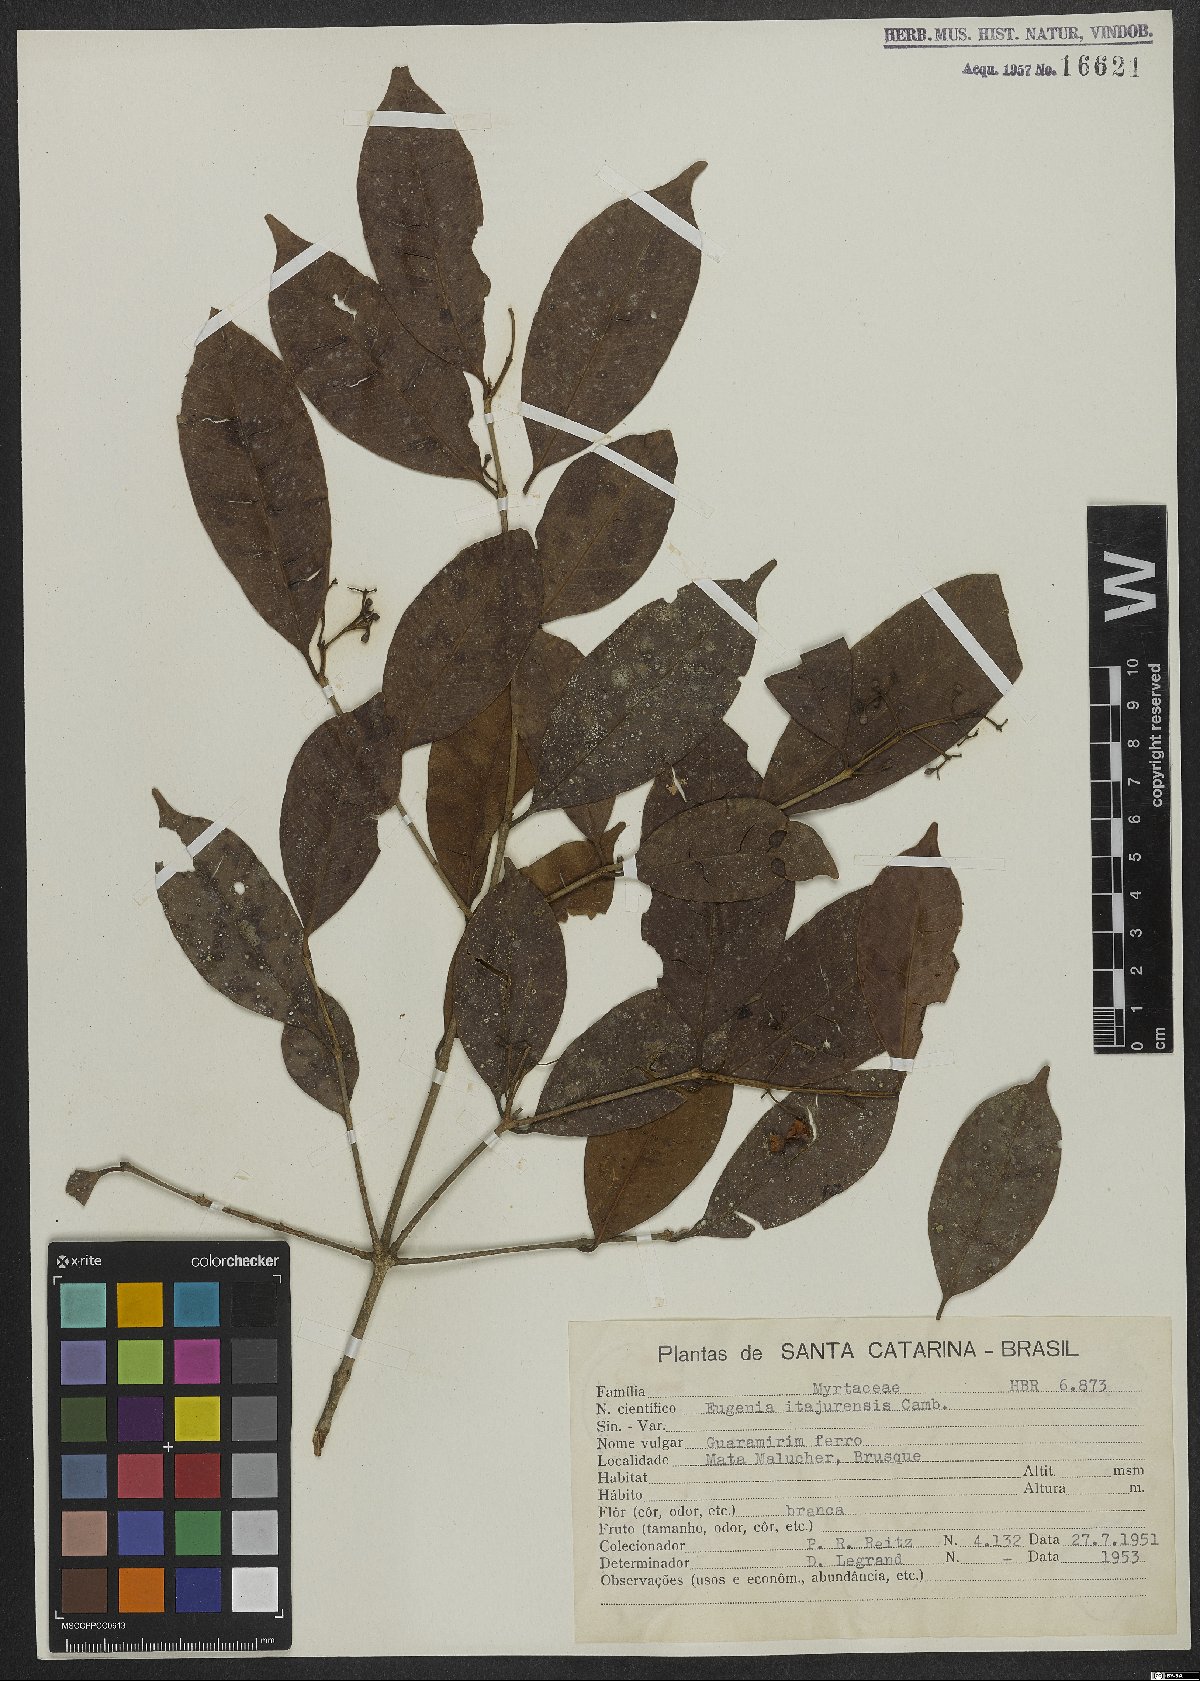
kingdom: Plantae
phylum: Tracheophyta
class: Magnoliopsida
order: Myrtales
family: Myrtaceae
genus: Eugenia
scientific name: Eugenia itajurensis
